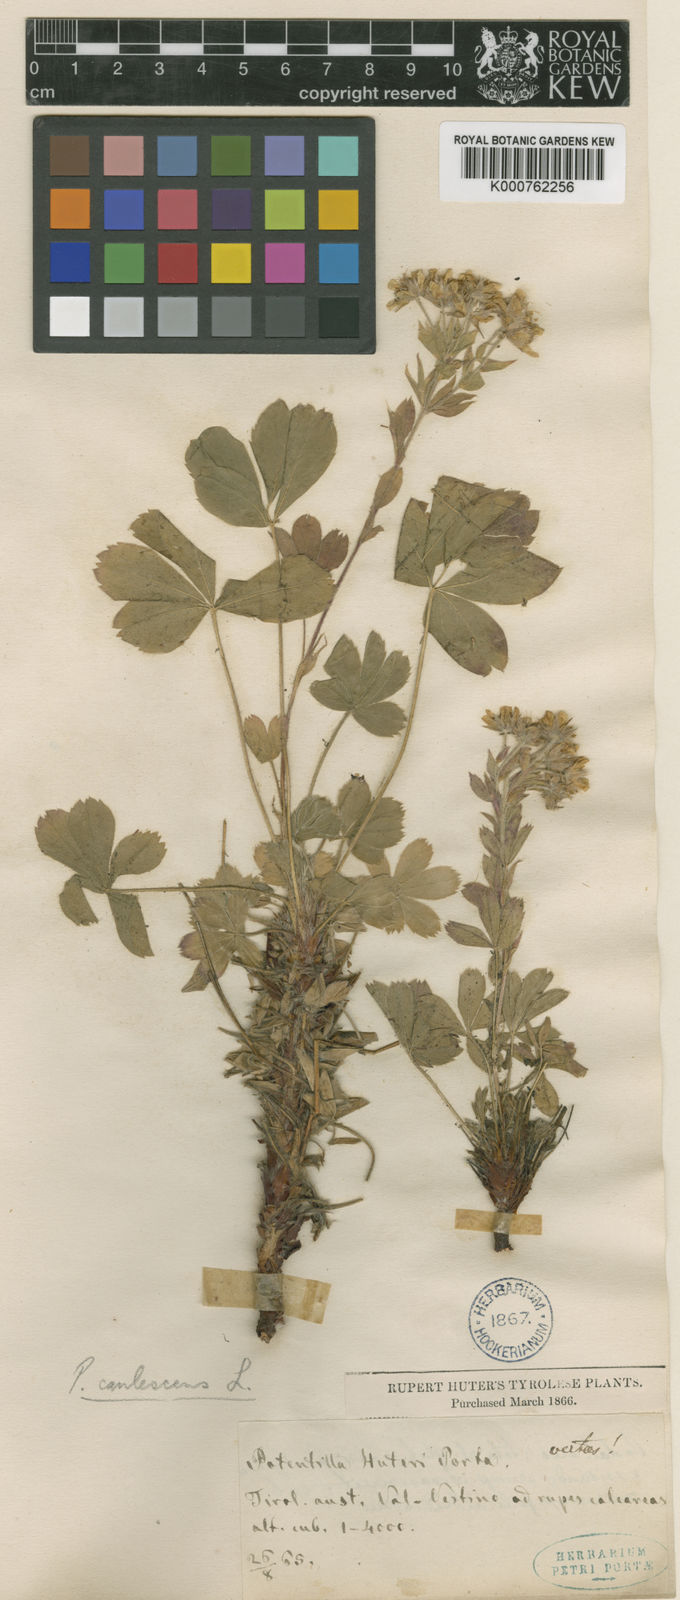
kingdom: Plantae
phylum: Tracheophyta
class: Magnoliopsida
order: Rosales
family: Rosaceae
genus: Potentilla
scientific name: Potentilla caulescens
